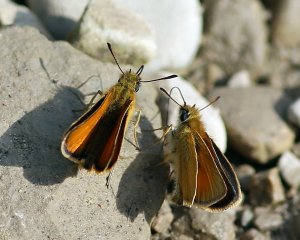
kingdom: Animalia
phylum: Arthropoda
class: Insecta
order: Lepidoptera
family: Hesperiidae
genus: Thymelicus
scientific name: Thymelicus lineola
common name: European Skipper
